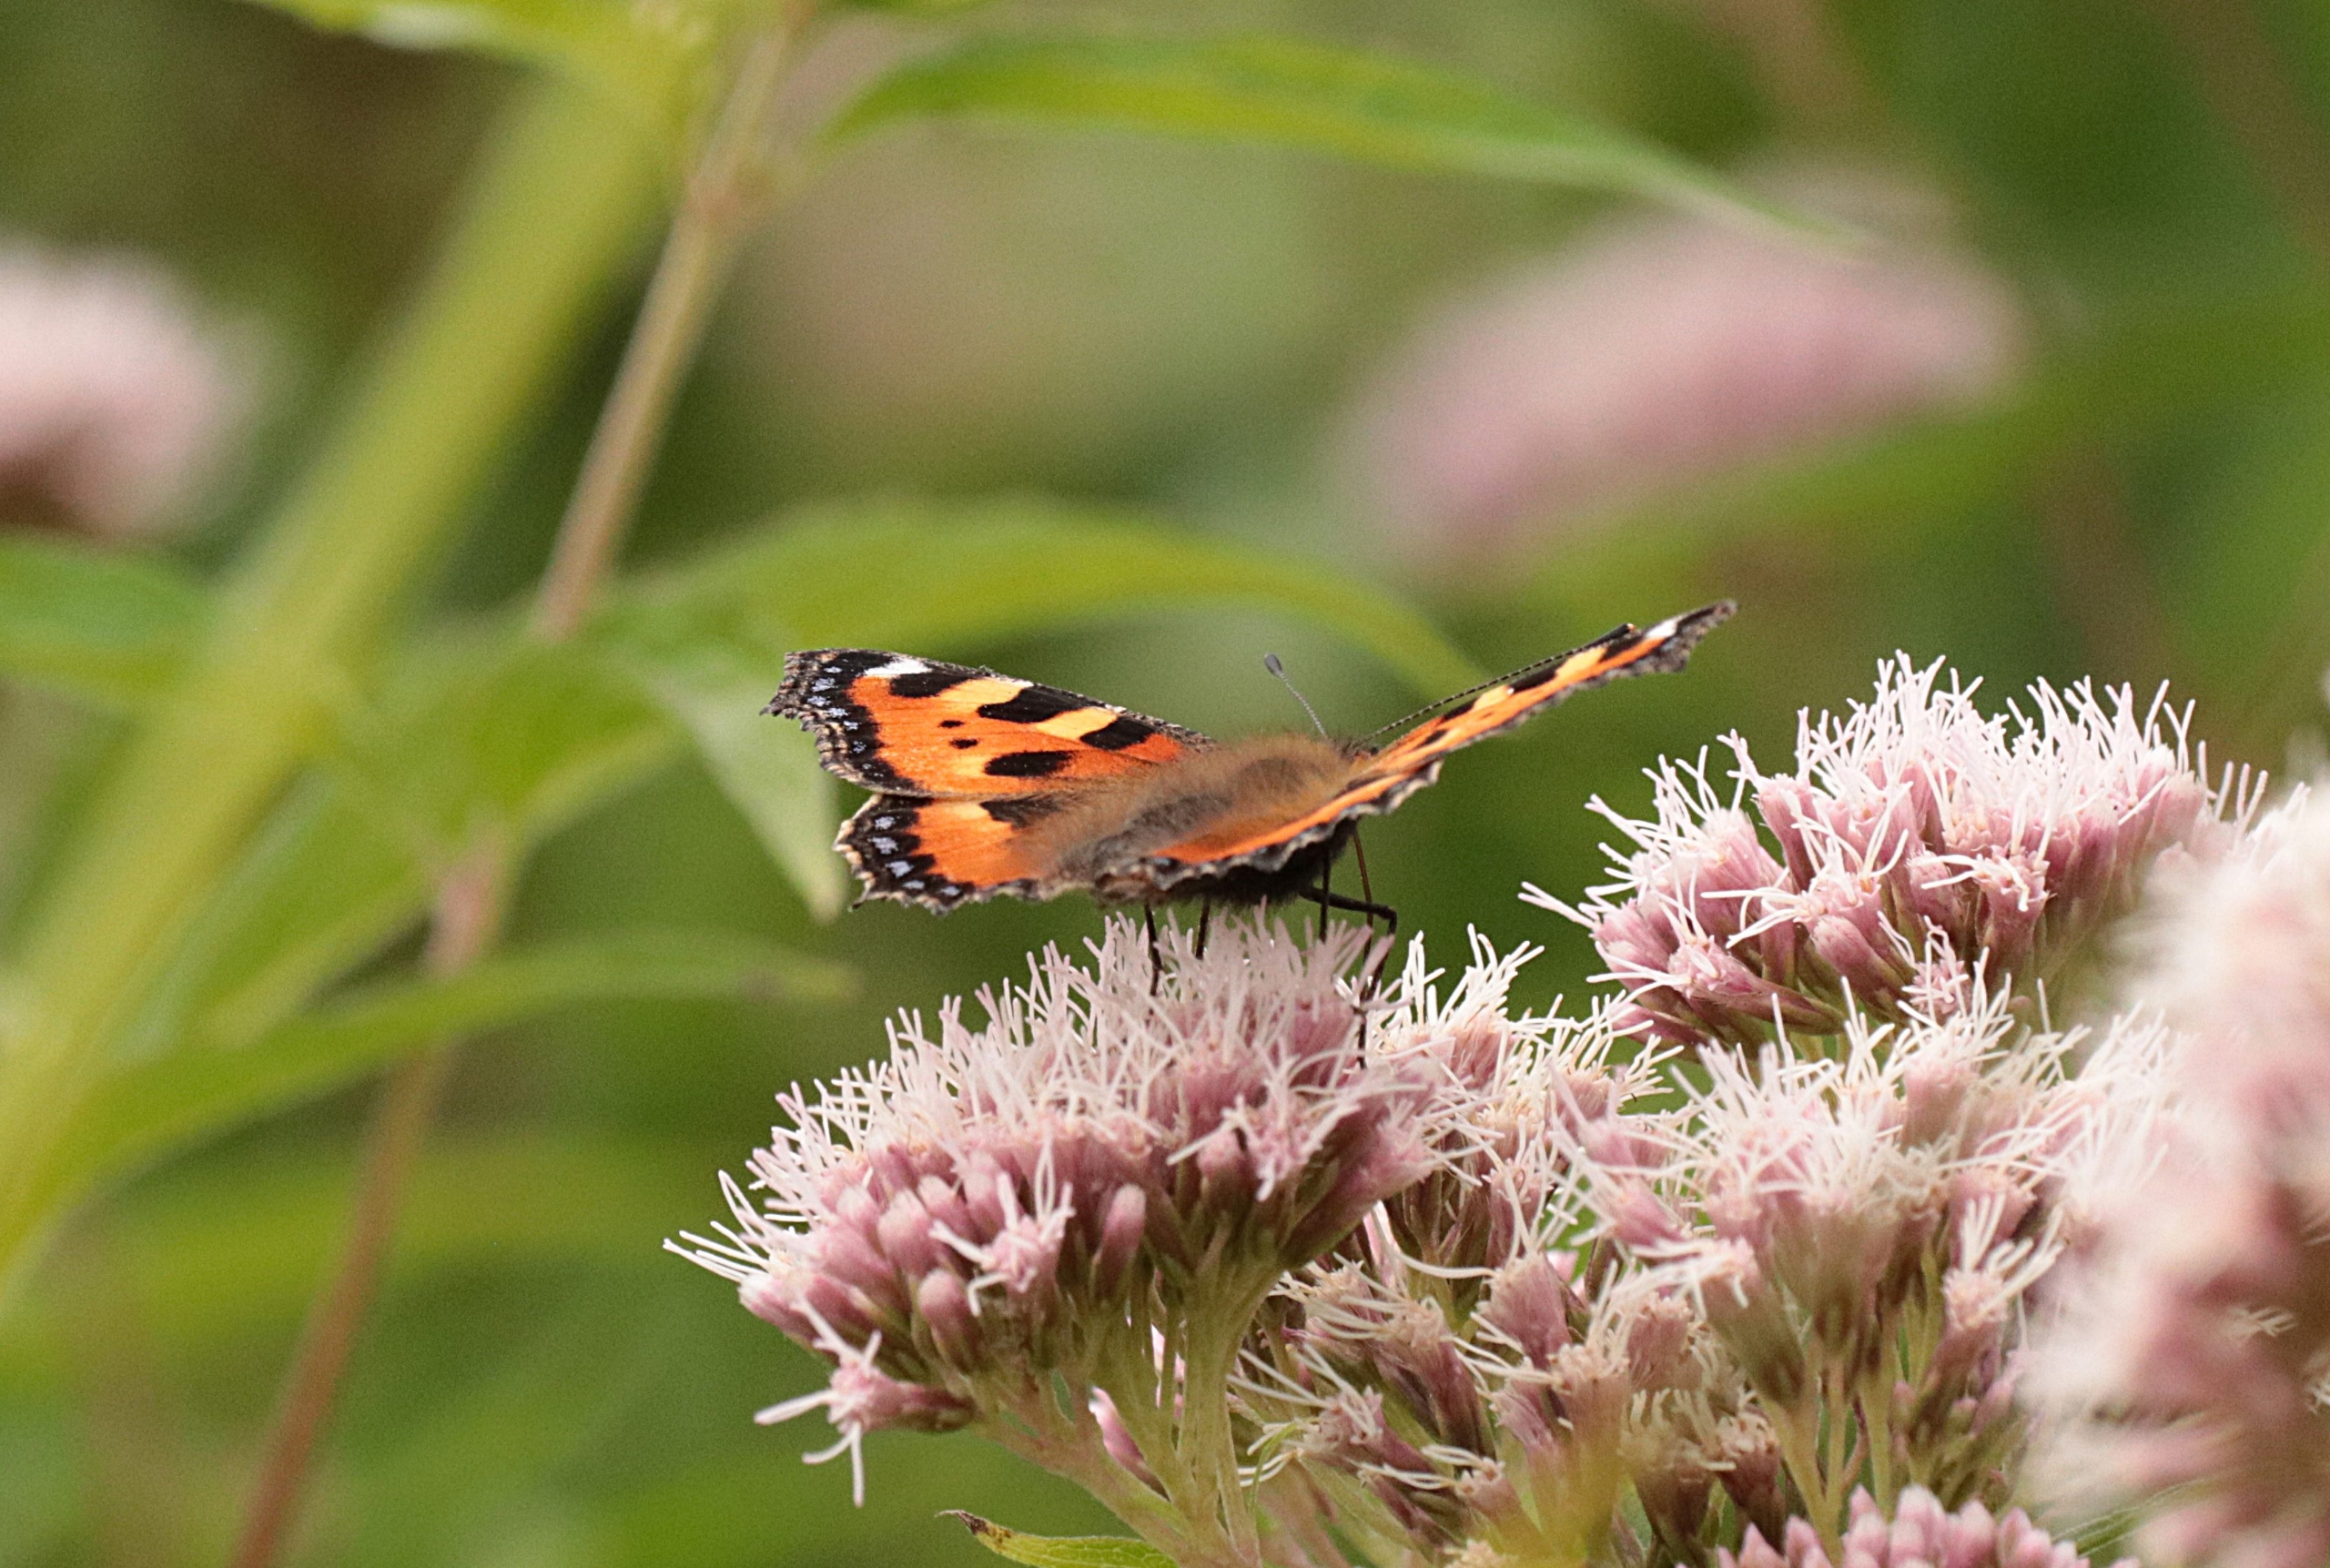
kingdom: Animalia
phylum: Arthropoda
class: Insecta
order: Lepidoptera
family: Nymphalidae
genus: Aglais
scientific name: Aglais urticae
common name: Nældens takvinge
